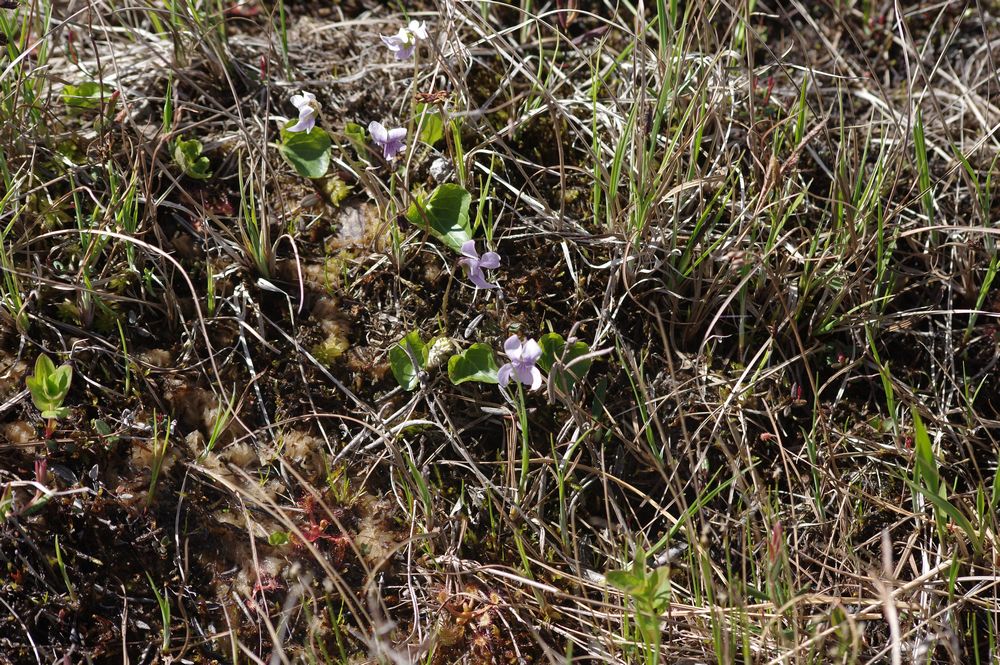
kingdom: Plantae
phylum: Tracheophyta
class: Magnoliopsida
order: Malpighiales
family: Violaceae
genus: Viola
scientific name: Viola palustris
